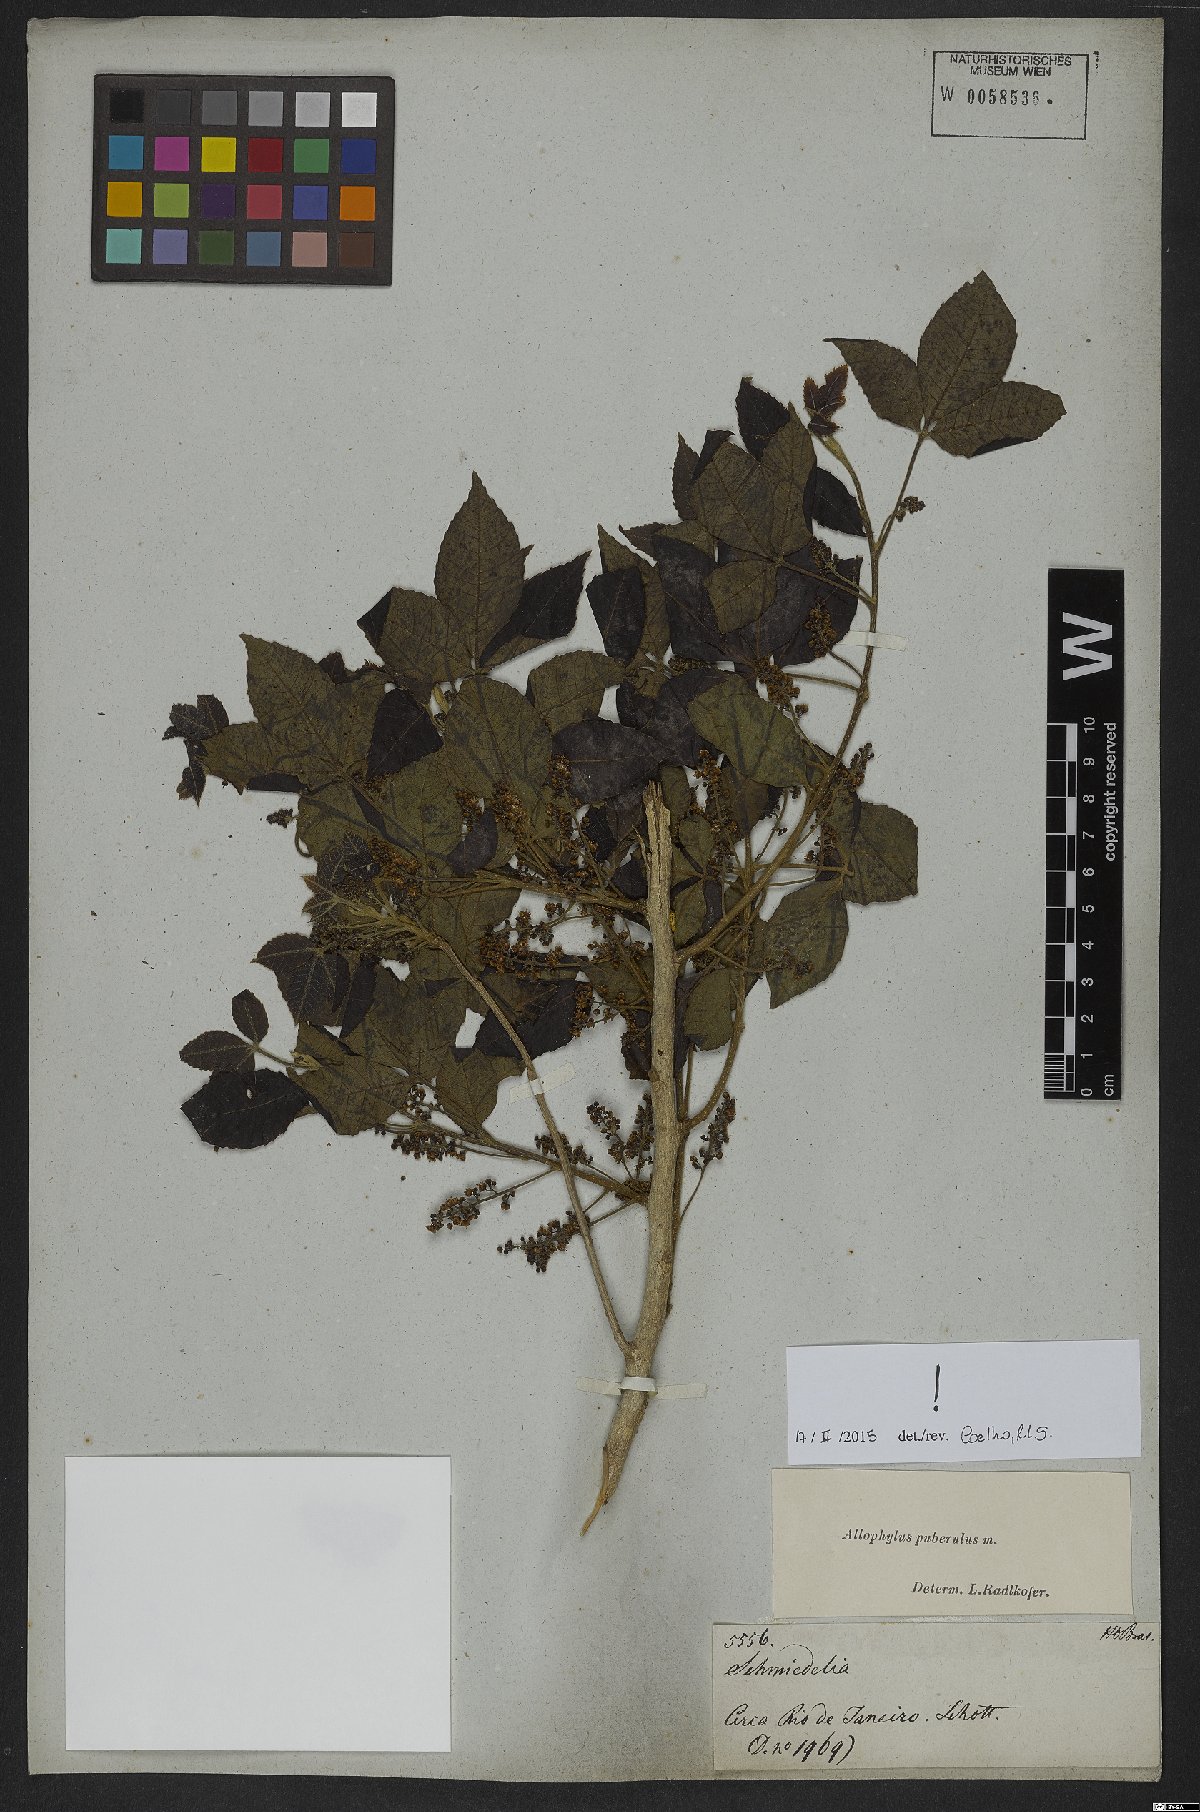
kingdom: Plantae
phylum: Tracheophyta
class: Magnoliopsida
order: Sapindales
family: Sapindaceae
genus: Allophylus
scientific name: Allophylus puberulus
